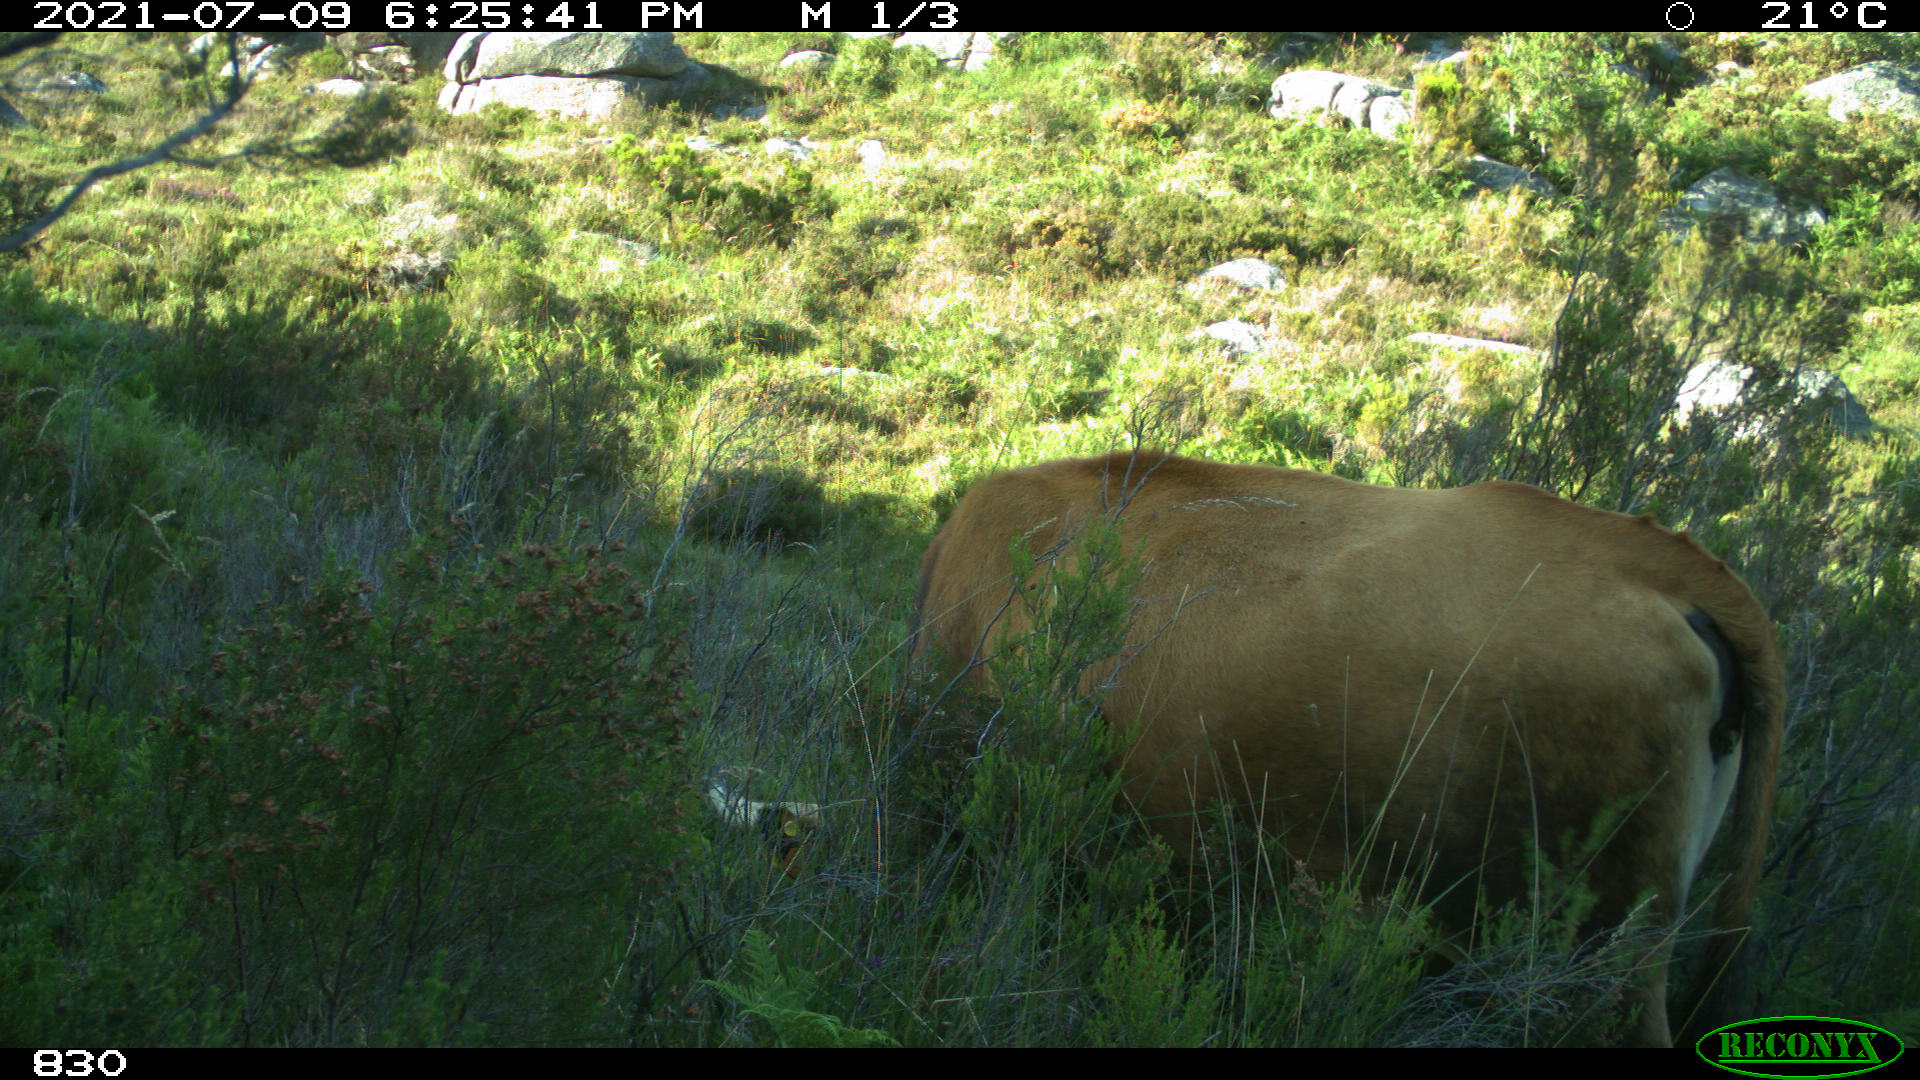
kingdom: Animalia
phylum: Chordata
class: Mammalia
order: Artiodactyla
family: Bovidae
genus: Bos
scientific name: Bos taurus
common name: Domesticated cattle
